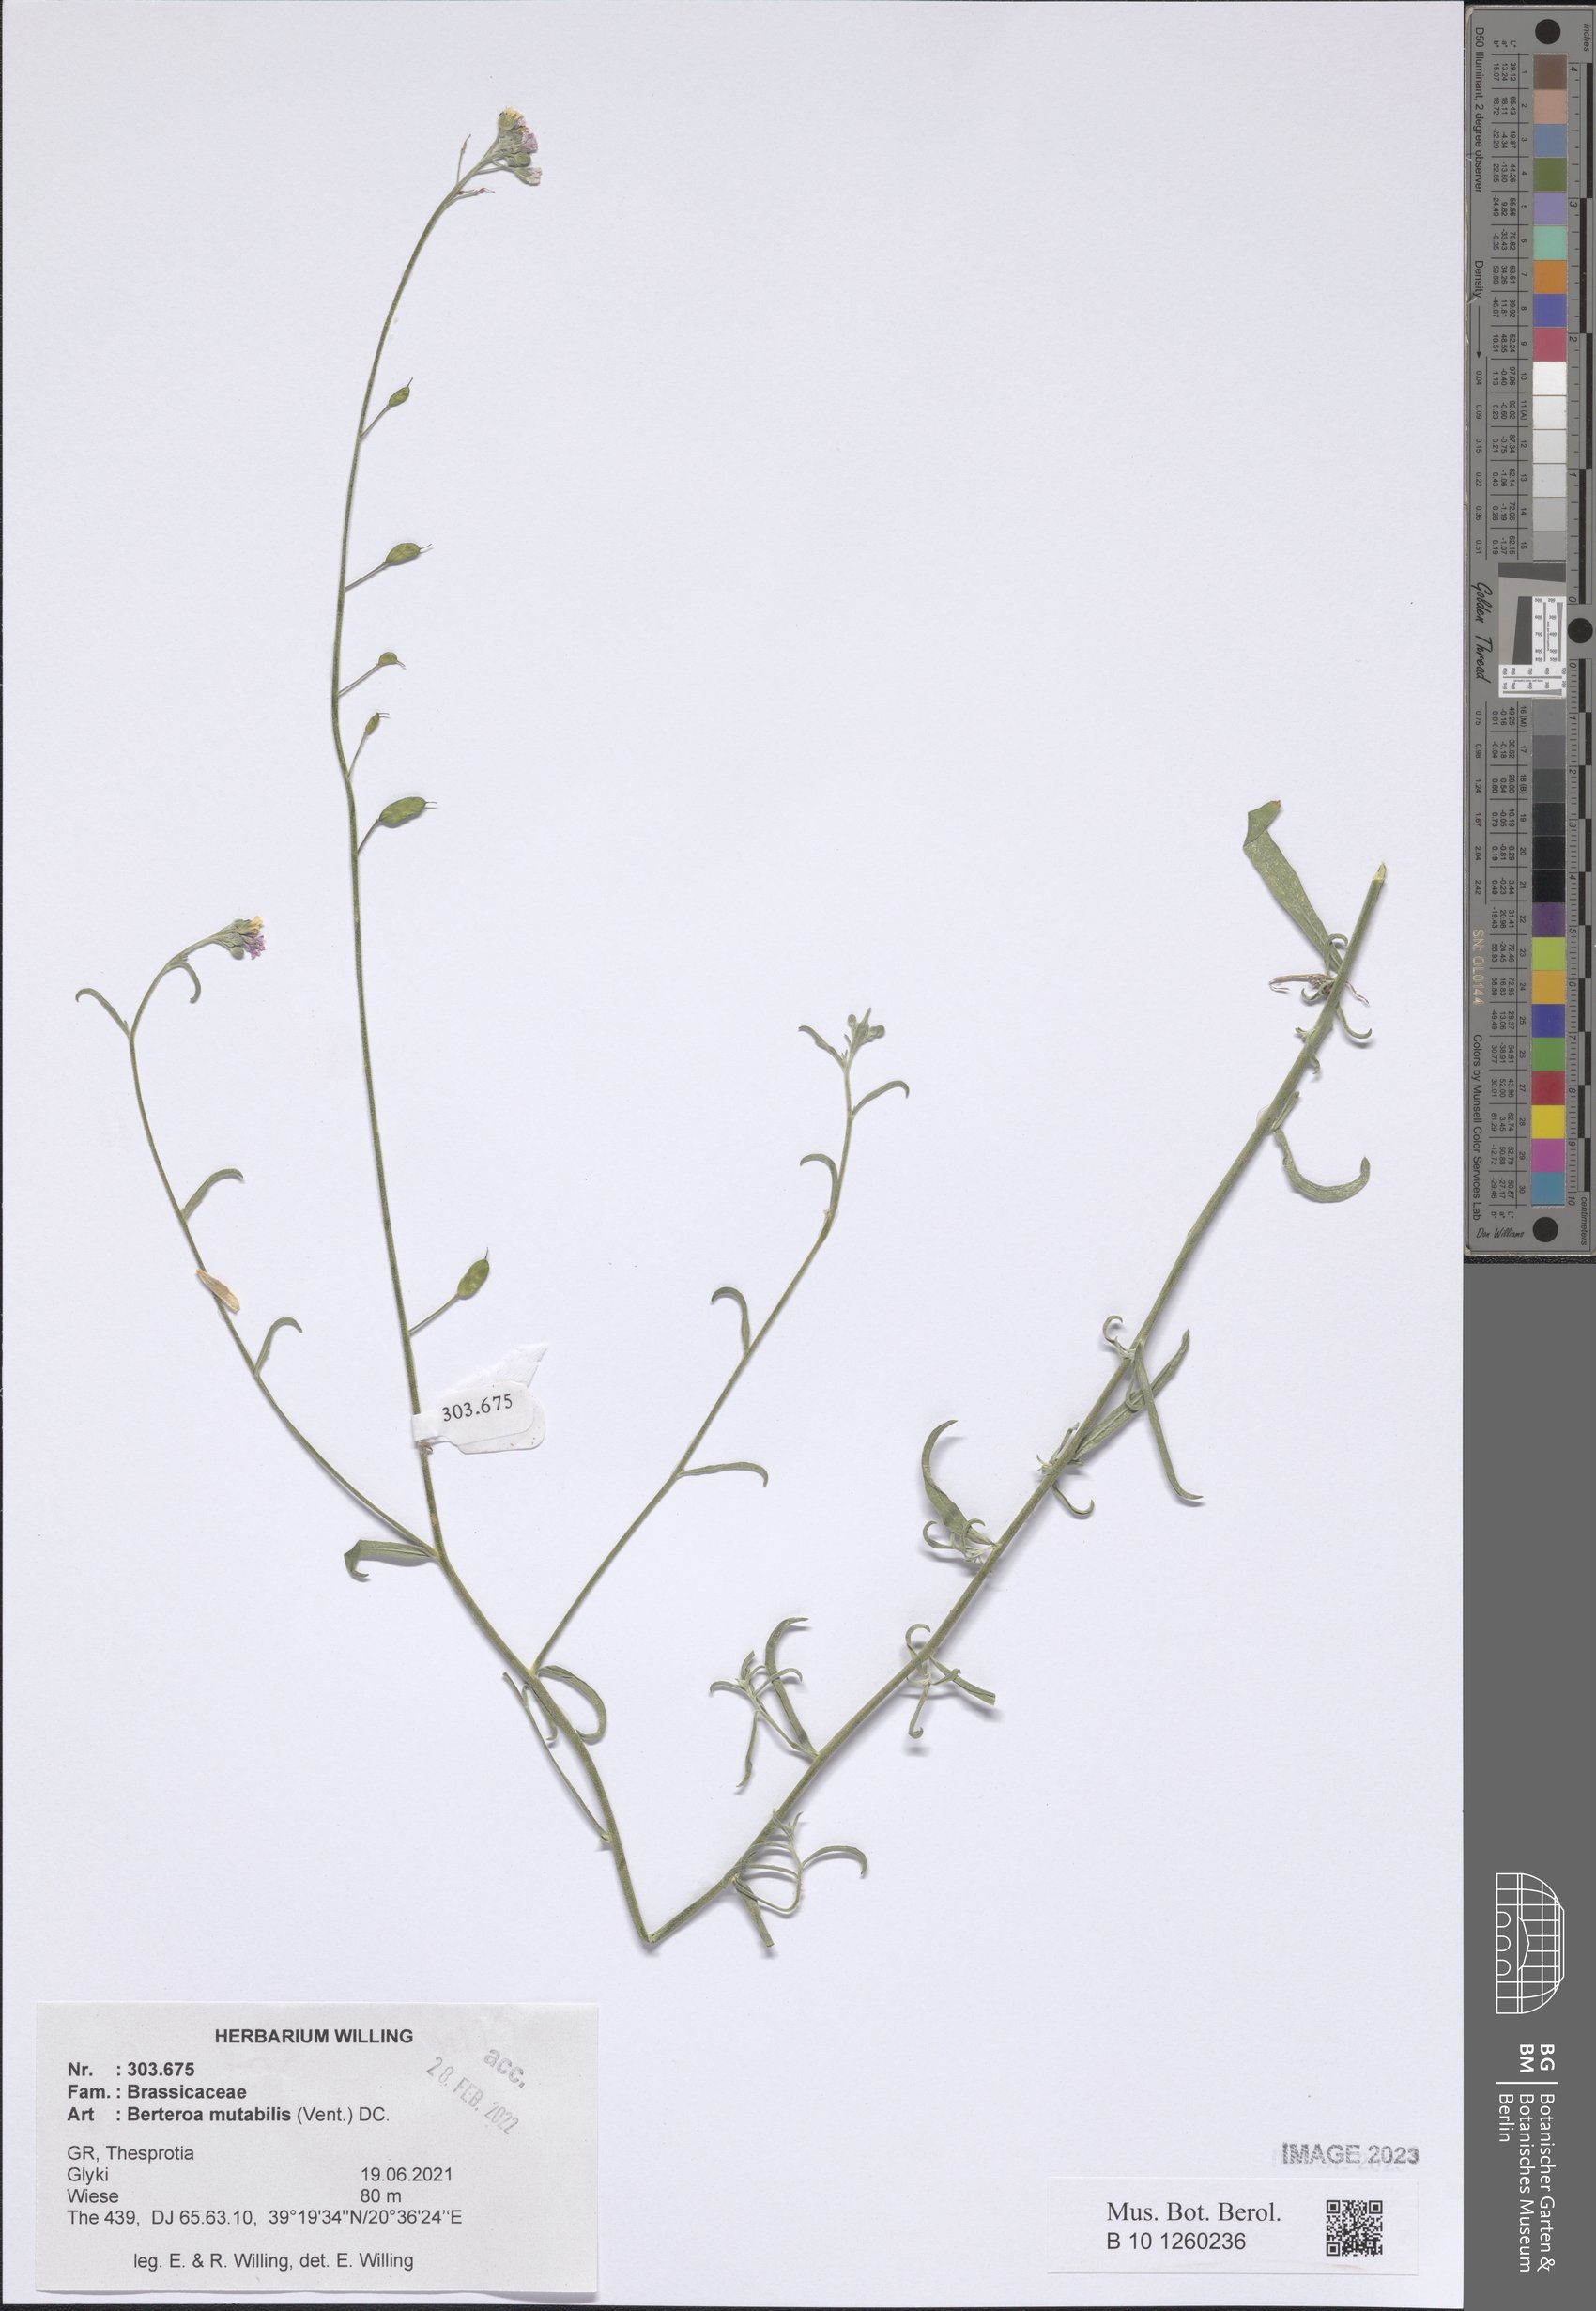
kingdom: Plantae
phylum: Tracheophyta
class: Magnoliopsida
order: Brassicales
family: Brassicaceae
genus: Berteroa
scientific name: Berteroa mutabilis
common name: Roadside false madwort
